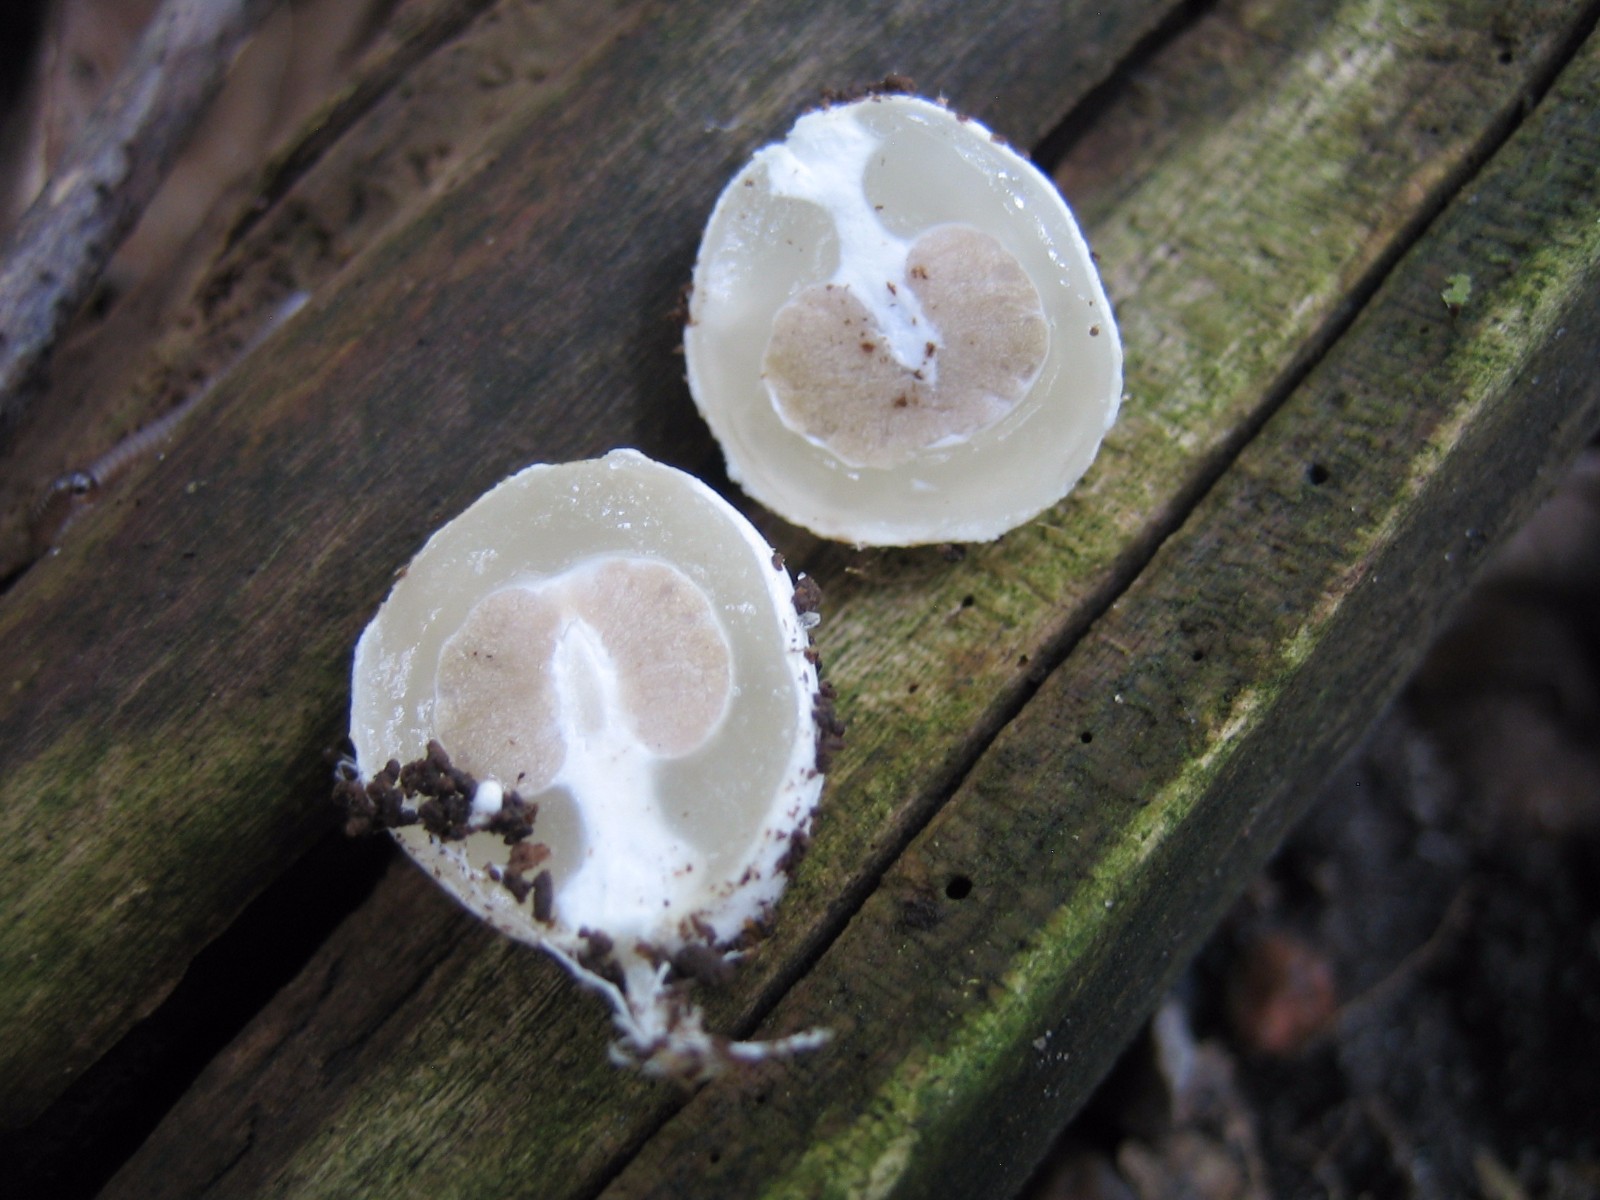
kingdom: Fungi
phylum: Basidiomycota
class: Agaricomycetes
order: Phallales
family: Phallaceae
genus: Phallus
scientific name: Phallus impudicus
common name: almindelig stinksvamp
